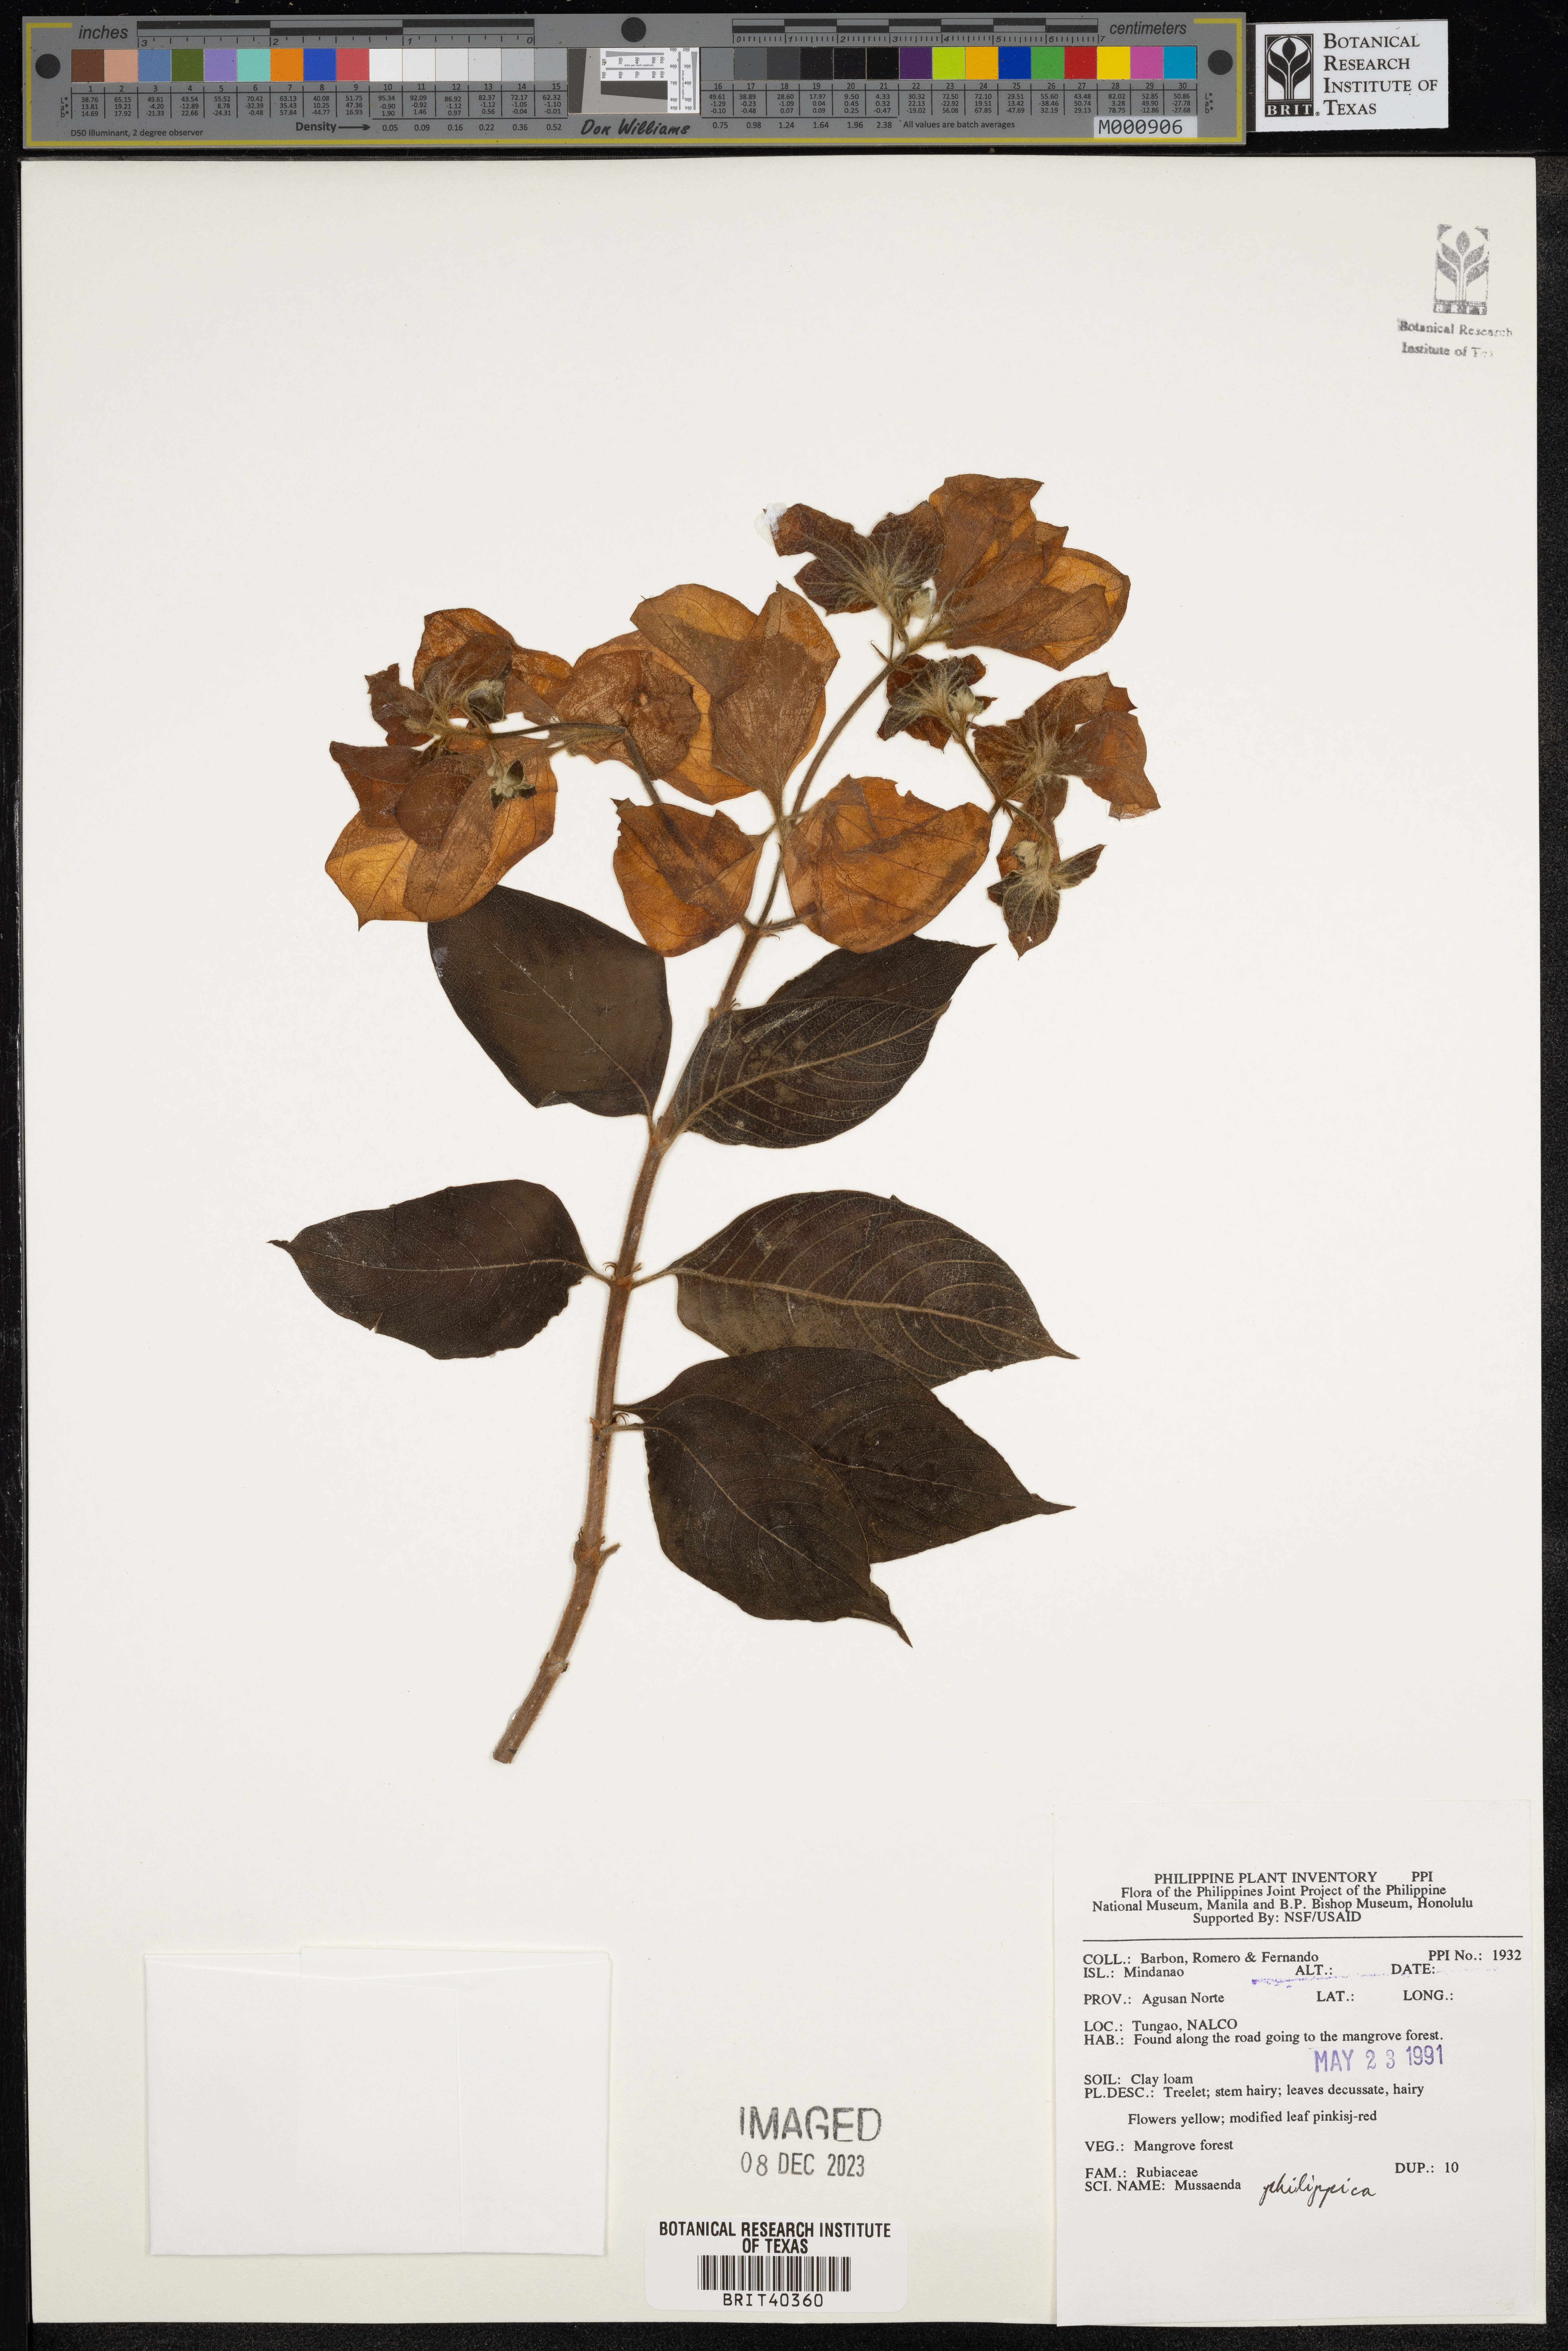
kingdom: Plantae
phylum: Tracheophyta
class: Magnoliopsida
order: Gentianales
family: Rubiaceae
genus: Mussaenda
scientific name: Mussaenda philippica
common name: Philippine mussaenda
